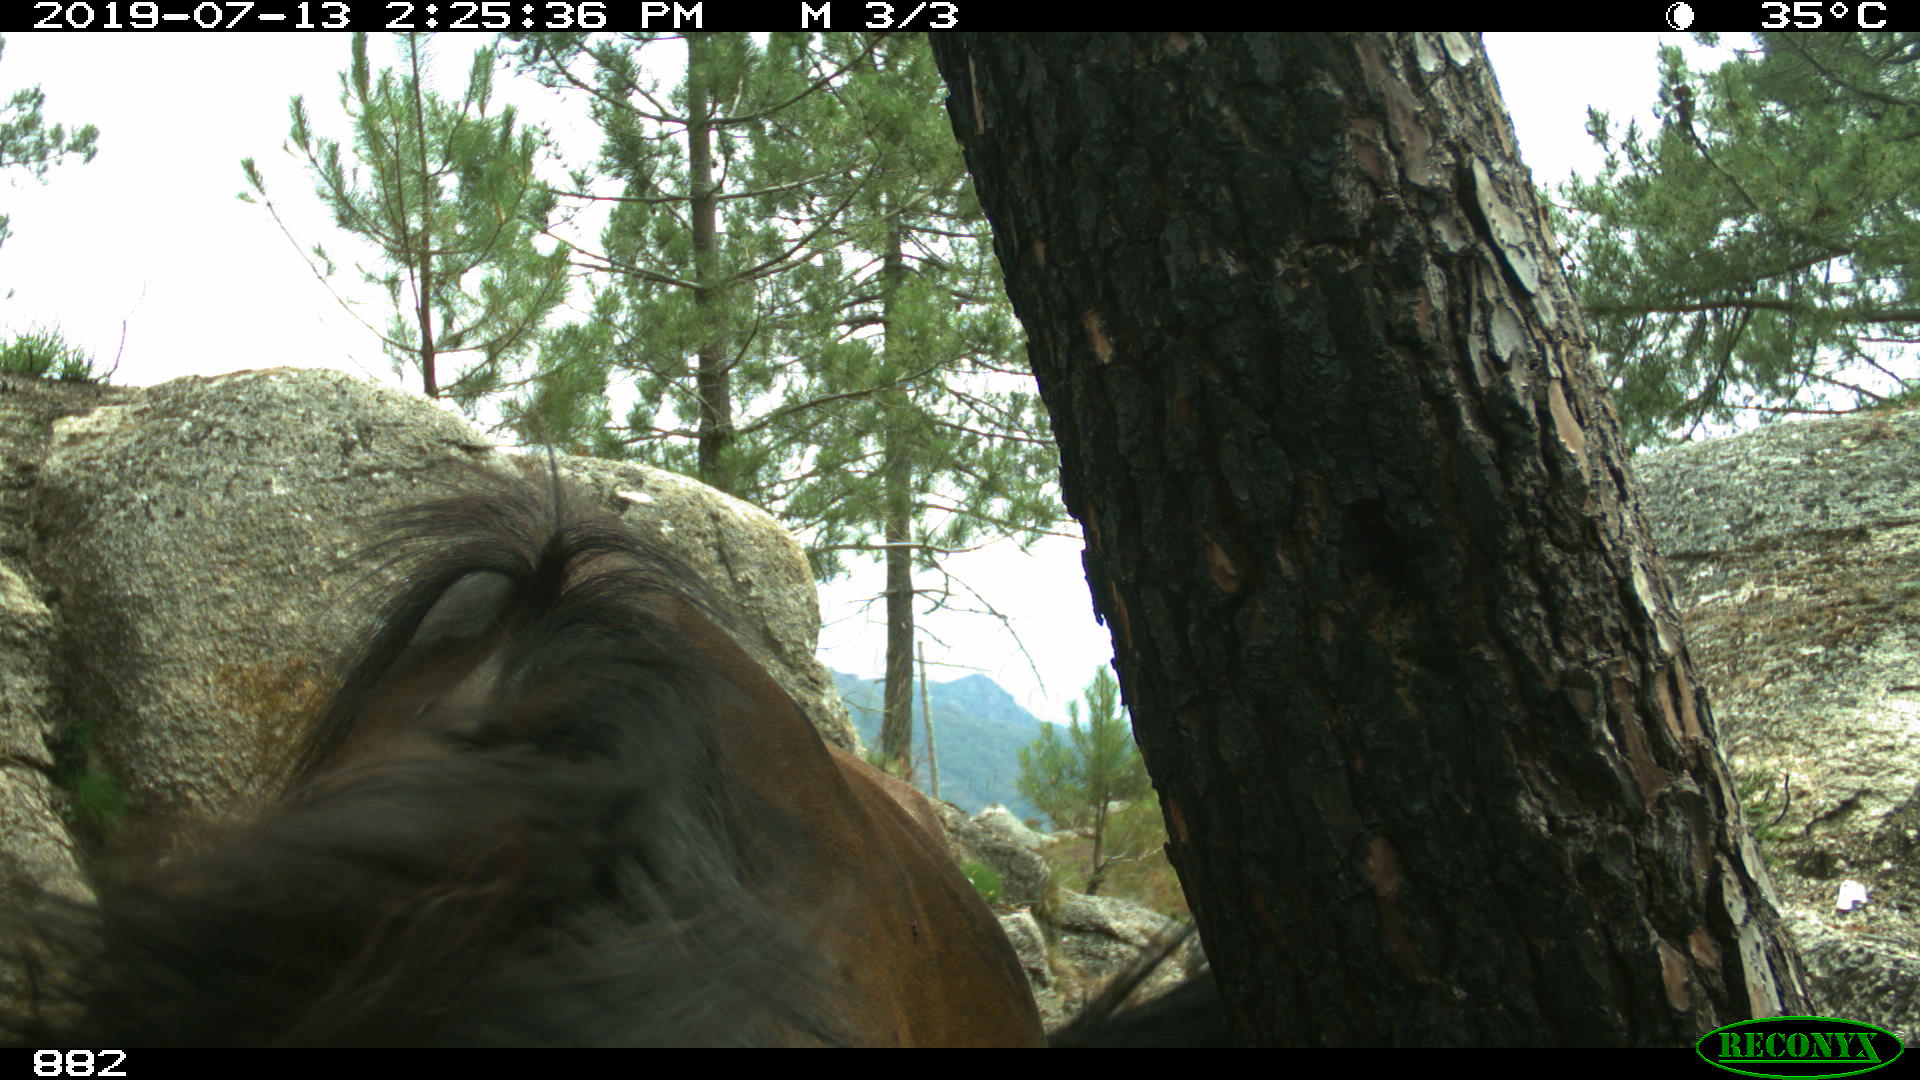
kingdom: Animalia
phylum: Chordata
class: Mammalia
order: Perissodactyla
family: Equidae
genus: Equus
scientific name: Equus caballus
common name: Horse
